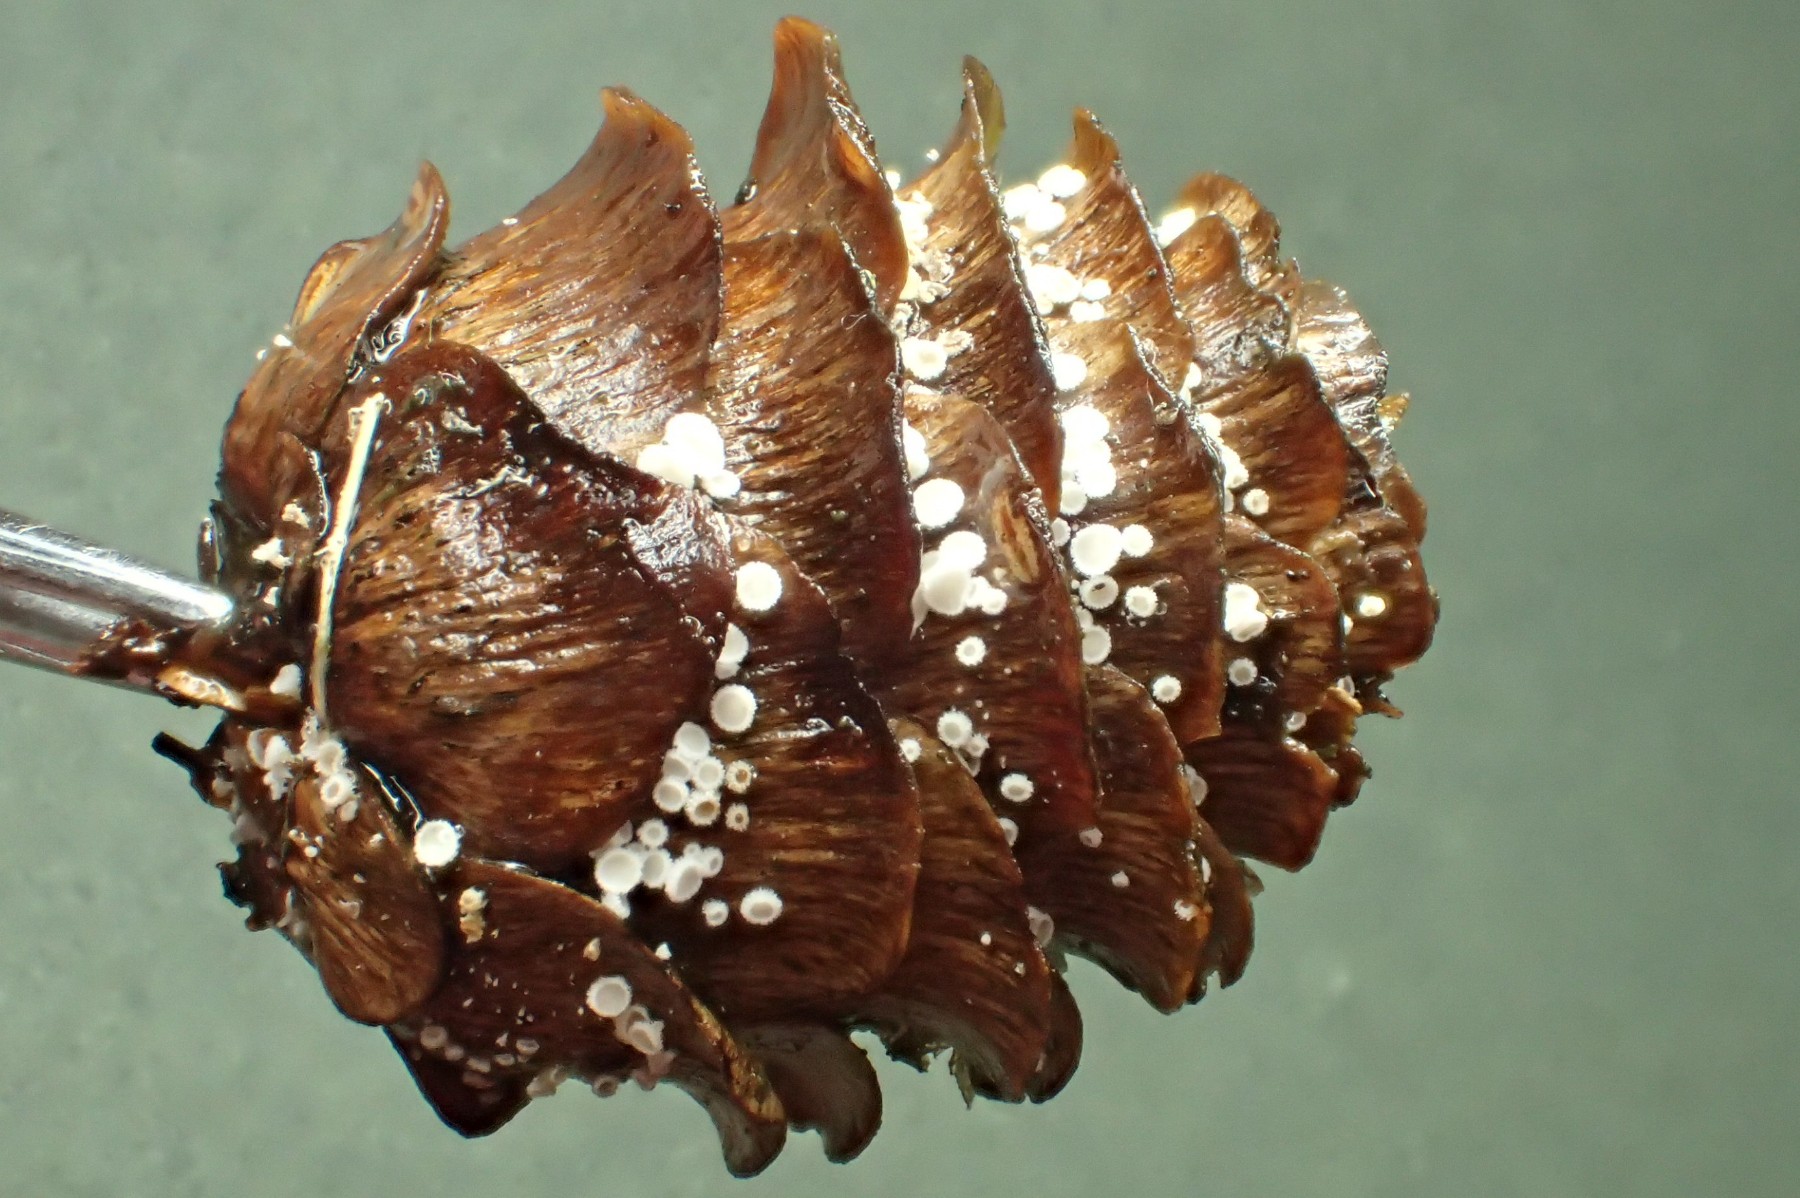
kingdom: Fungi
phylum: Ascomycota
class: Leotiomycetes
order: Helotiales
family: Lachnaceae
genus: Lachnum
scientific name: Lachnum virgineum
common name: jomfru-frynseskive
